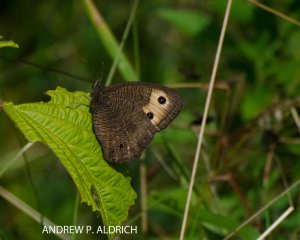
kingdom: Animalia
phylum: Arthropoda
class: Insecta
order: Lepidoptera
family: Nymphalidae
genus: Cercyonis
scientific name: Cercyonis pegala
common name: Common Wood-Nymph
